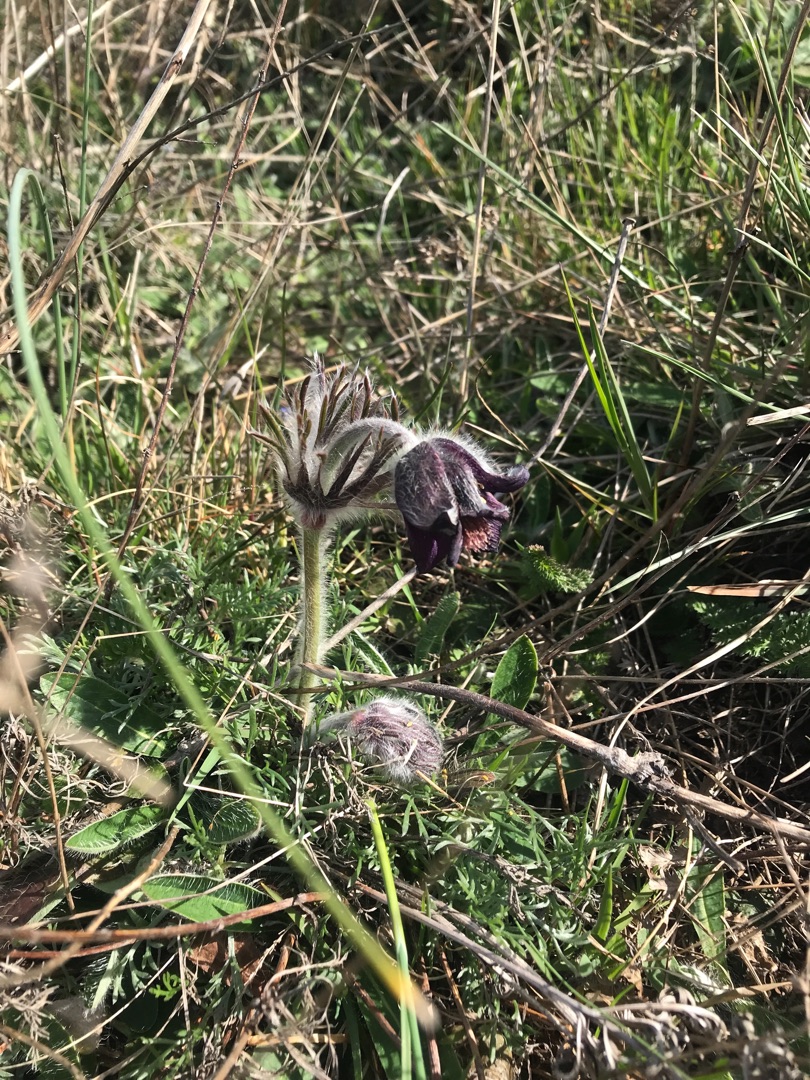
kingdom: Plantae
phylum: Tracheophyta
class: Magnoliopsida
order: Ranunculales
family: Ranunculaceae
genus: Pulsatilla
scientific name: Pulsatilla pratensis
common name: Nikkende kobjælde
